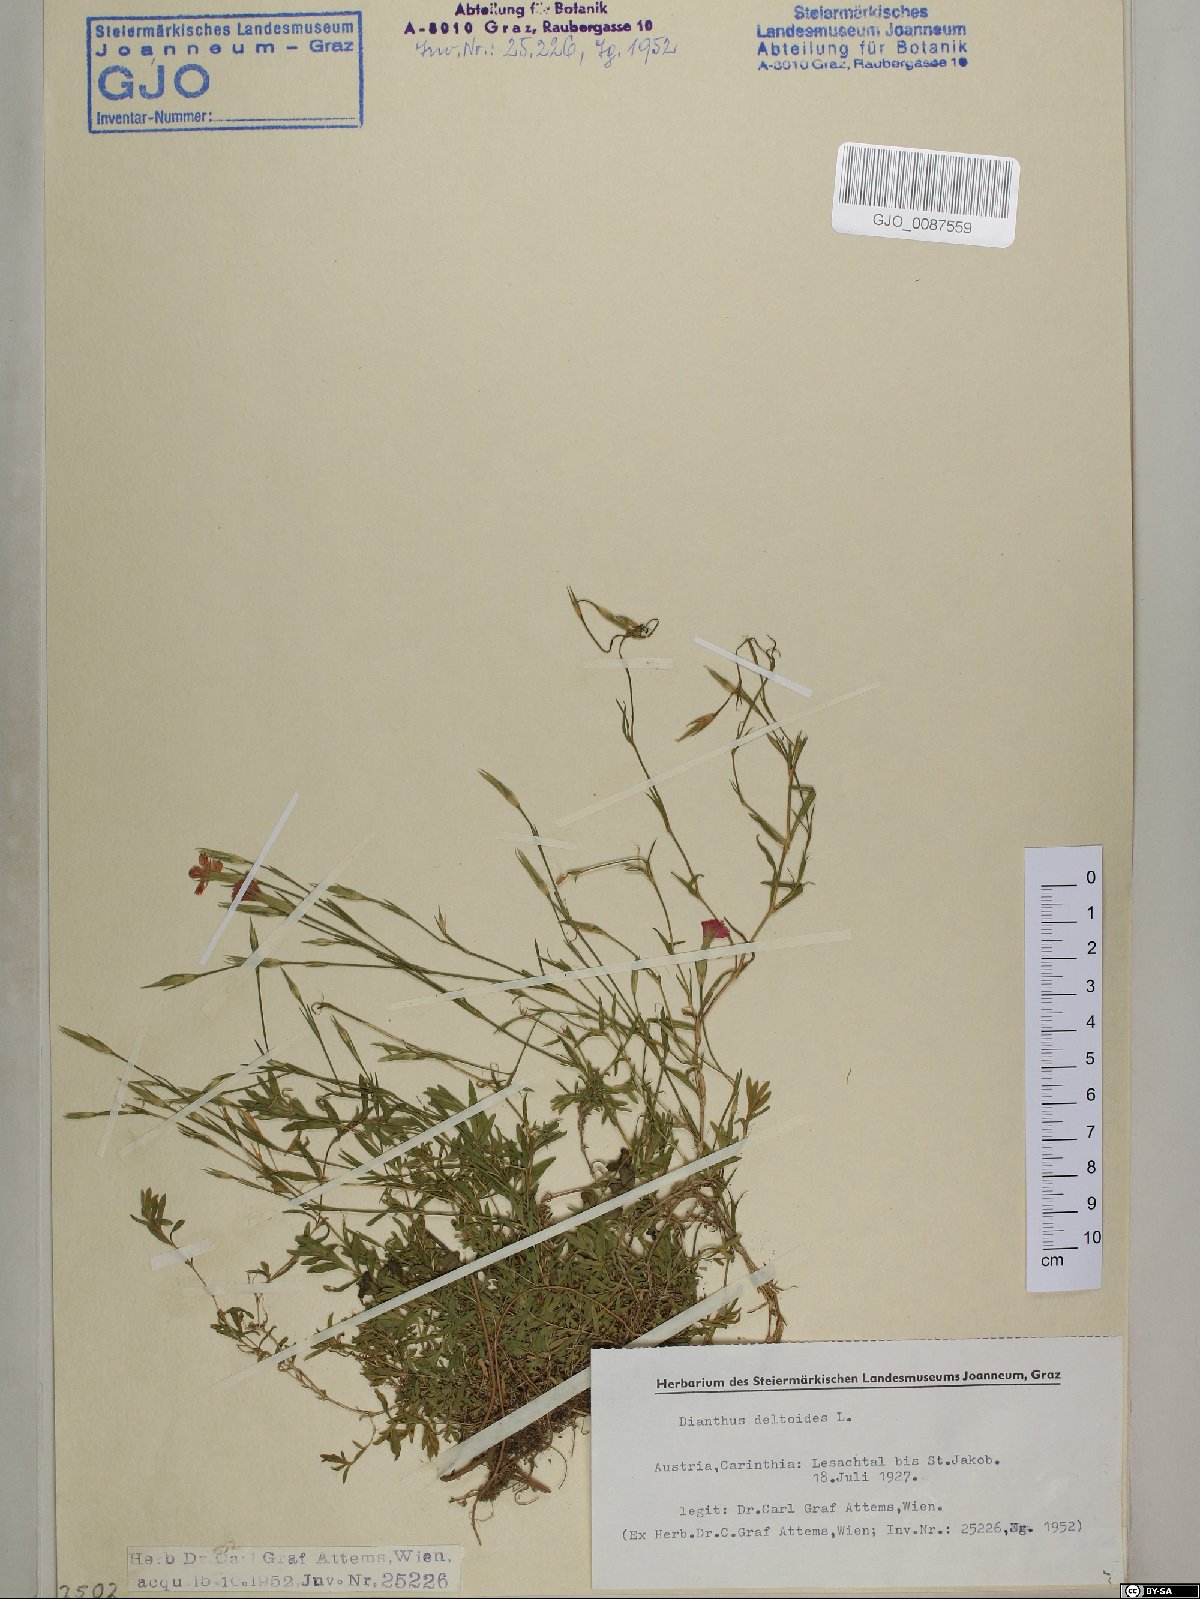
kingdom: Plantae
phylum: Tracheophyta
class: Magnoliopsida
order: Caryophyllales
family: Caryophyllaceae
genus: Dianthus
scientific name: Dianthus deltoides
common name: Maiden pink
